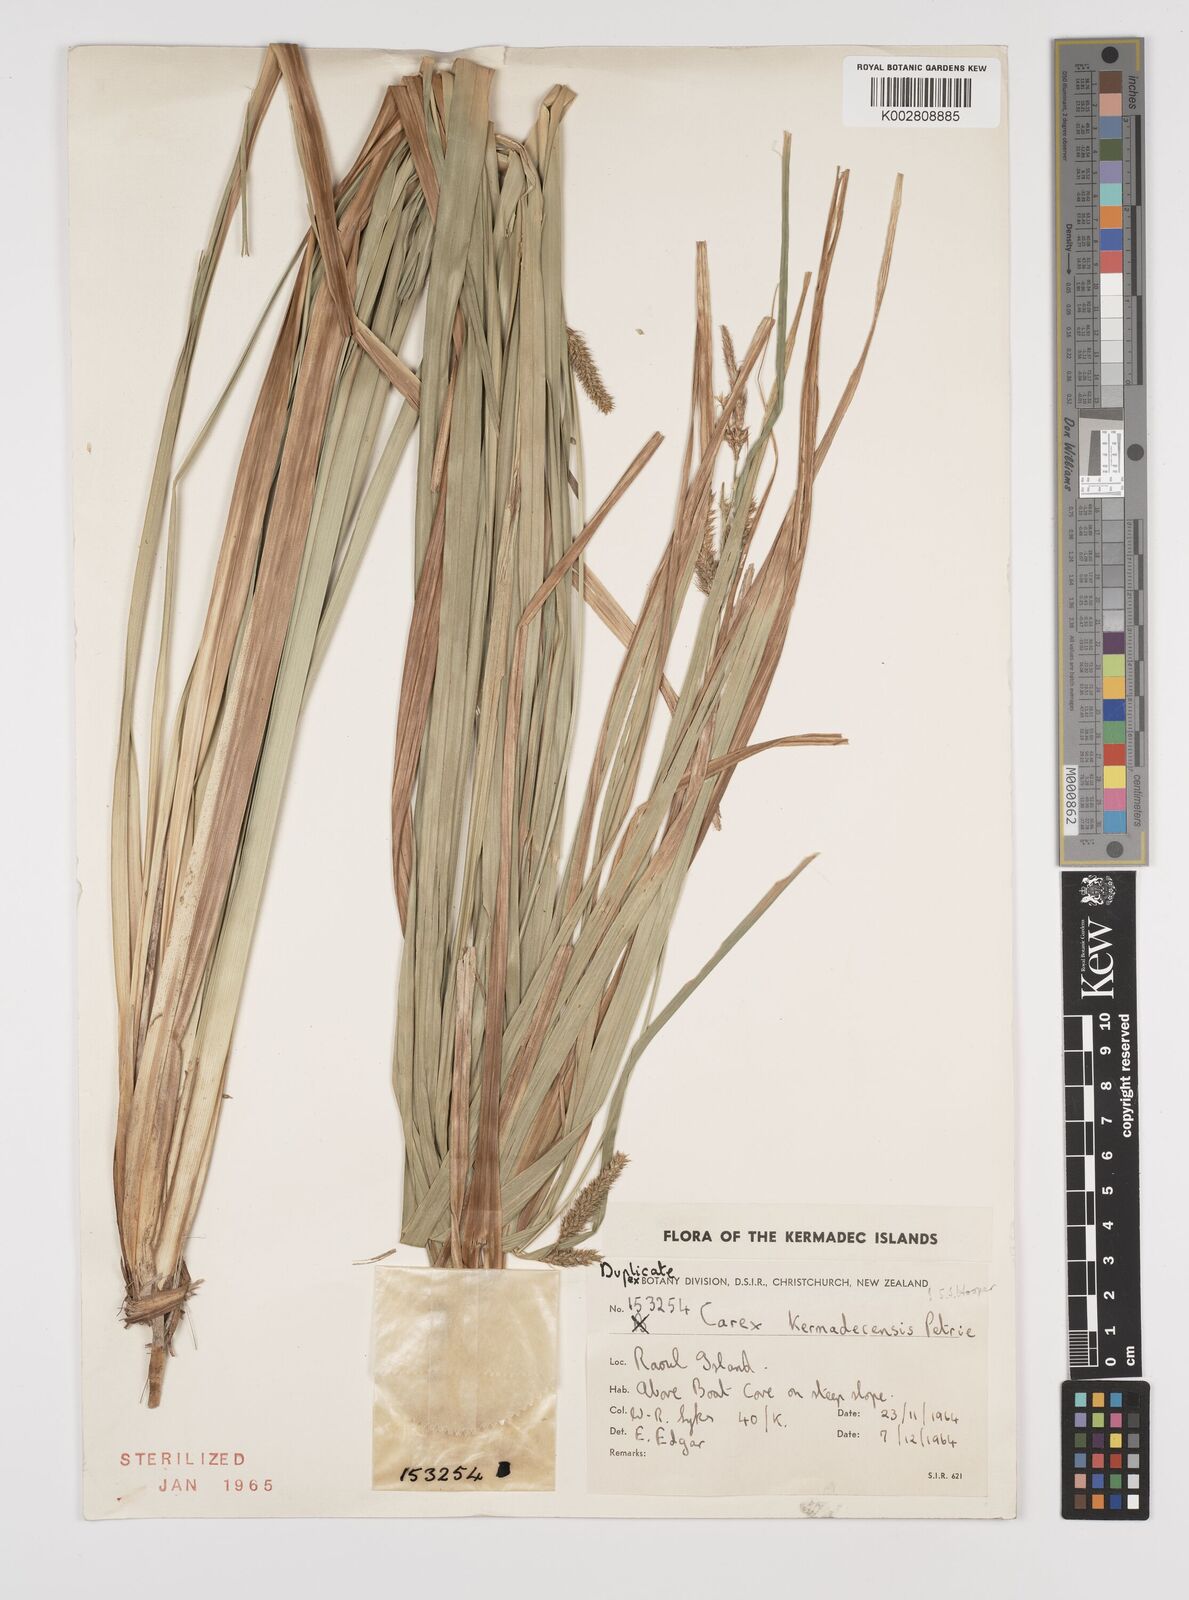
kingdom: Plantae
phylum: Tracheophyta
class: Liliopsida
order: Poales
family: Cyperaceae
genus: Carex
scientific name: Carex forsteri
